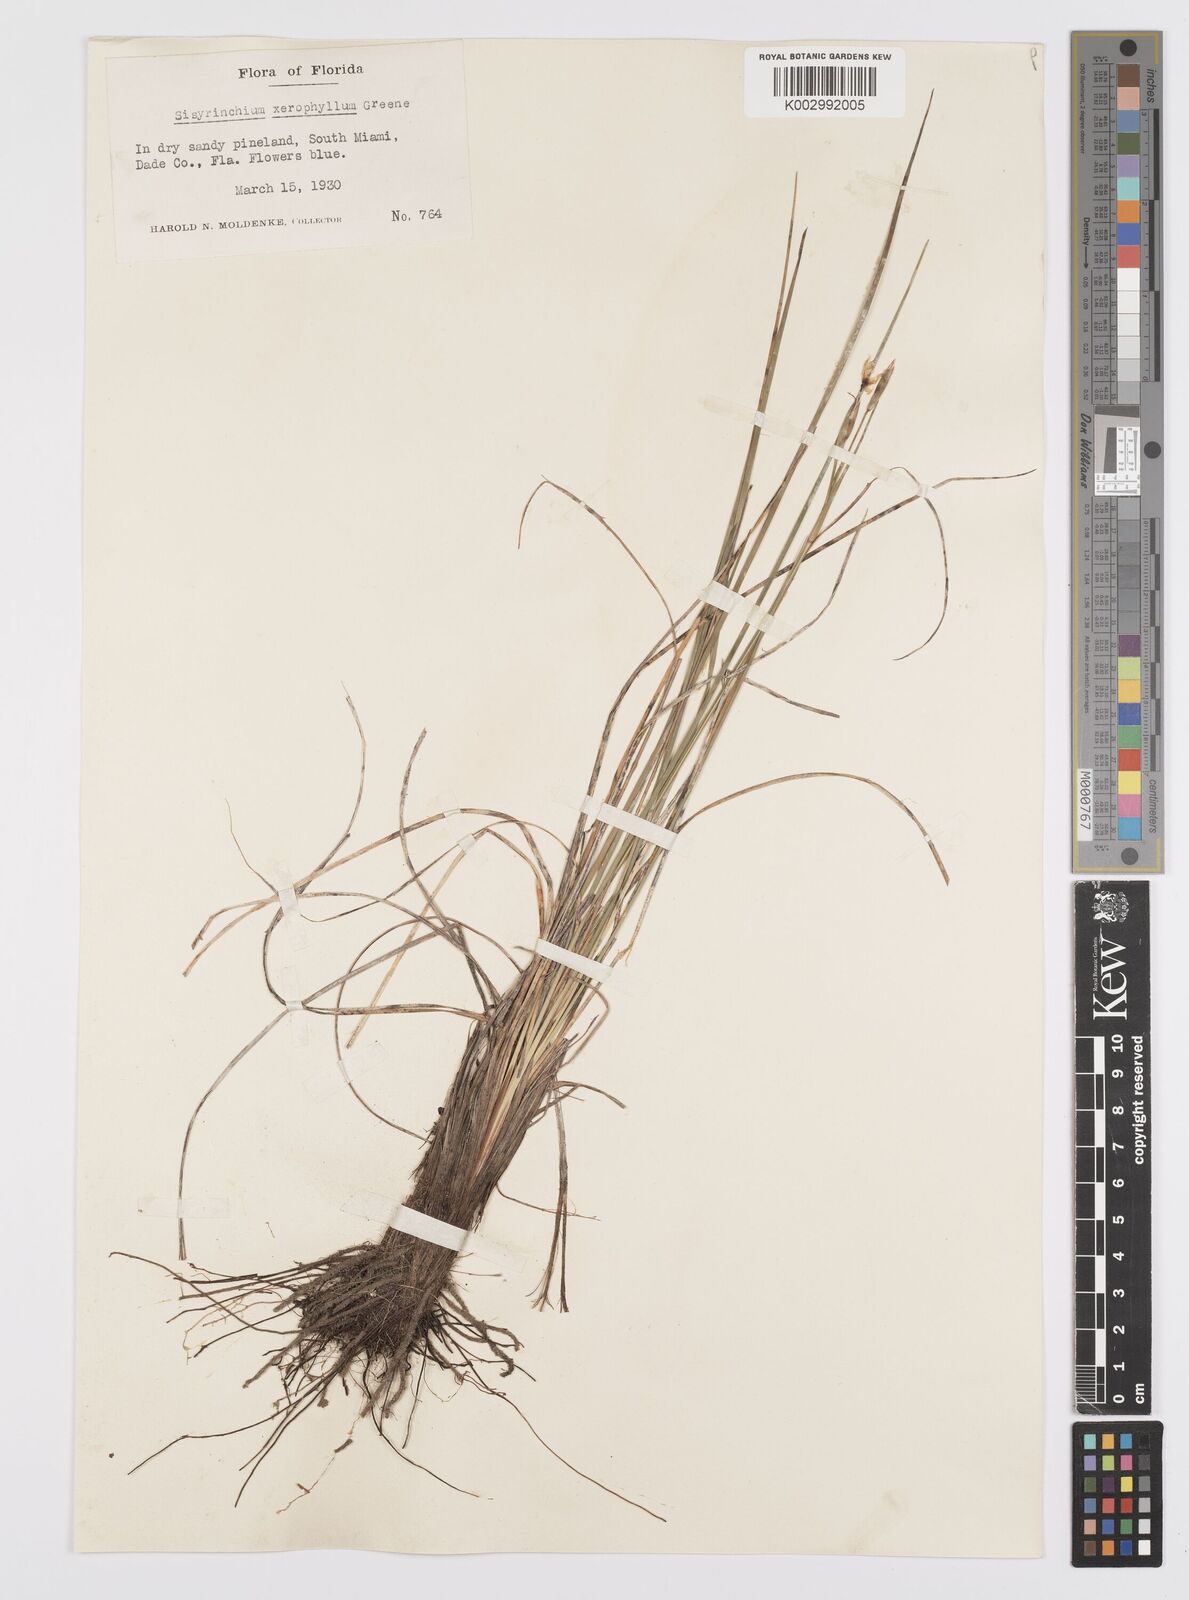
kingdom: Plantae
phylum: Tracheophyta
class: Liliopsida
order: Asparagales
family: Iridaceae
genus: Sisyrinchium
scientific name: Sisyrinchium xerophyllum
